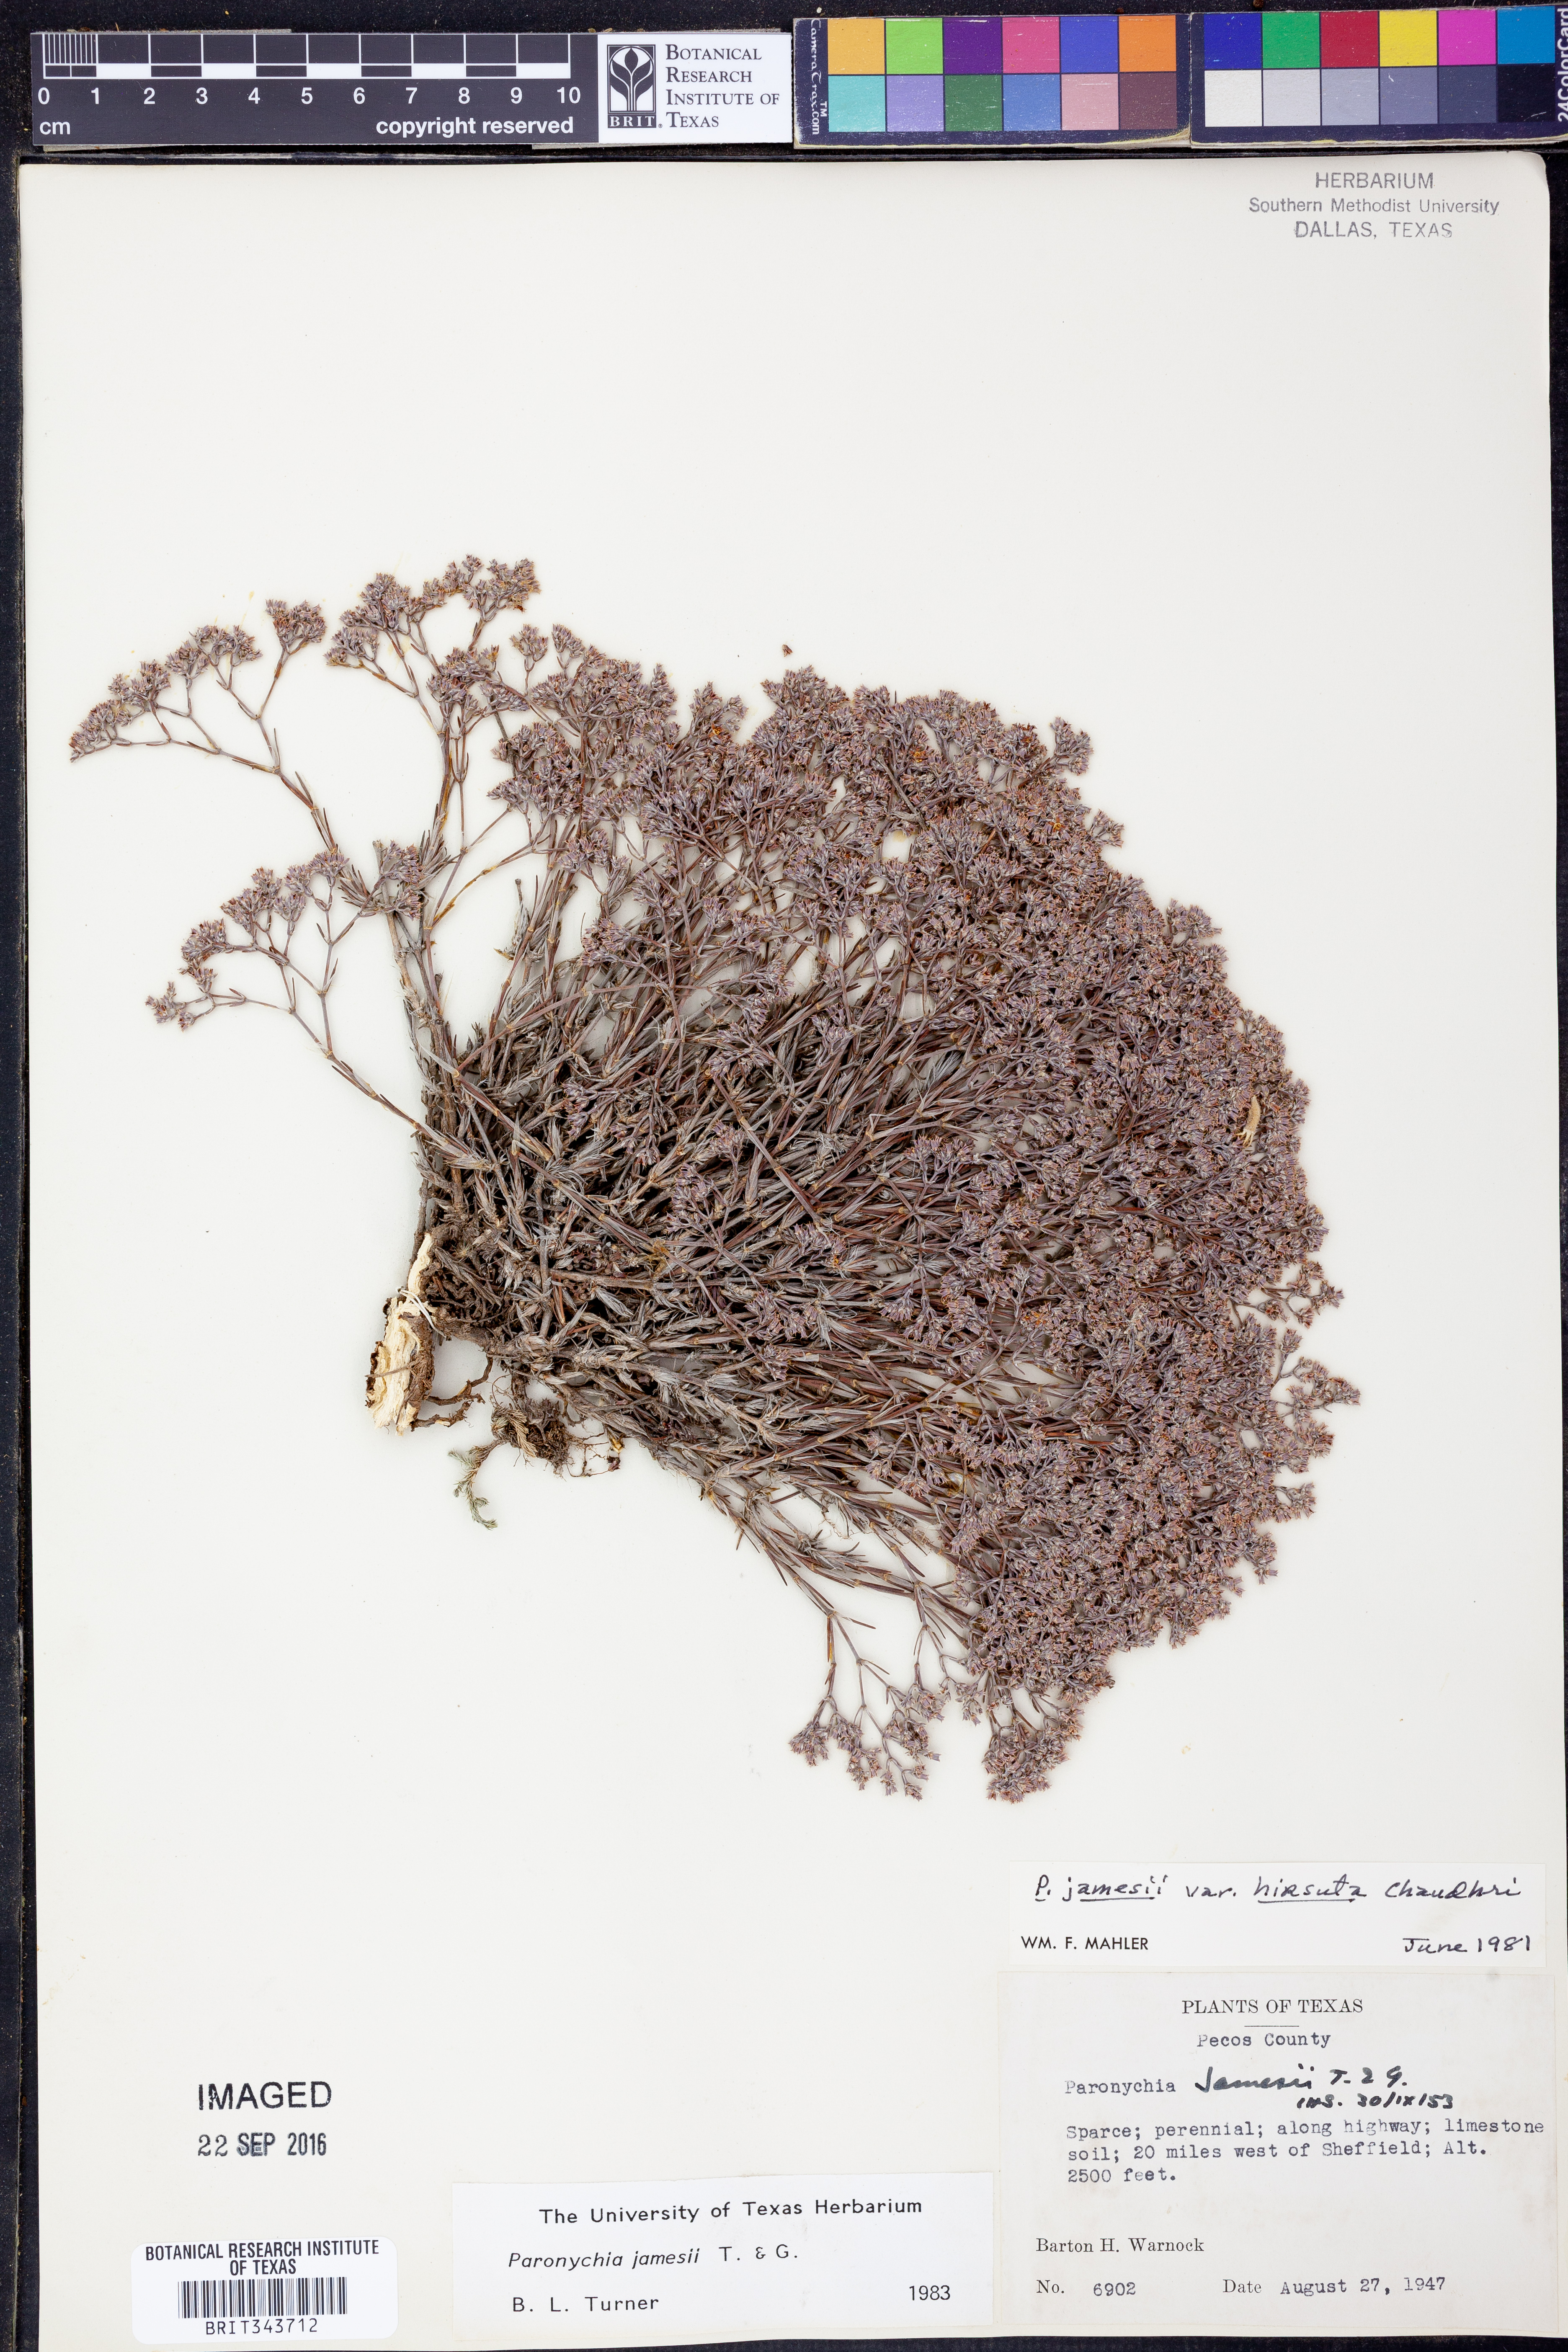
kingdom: Plantae
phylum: Tracheophyta
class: Magnoliopsida
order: Caryophyllales
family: Caryophyllaceae
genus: Paronychia
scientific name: Paronychia jamesii
